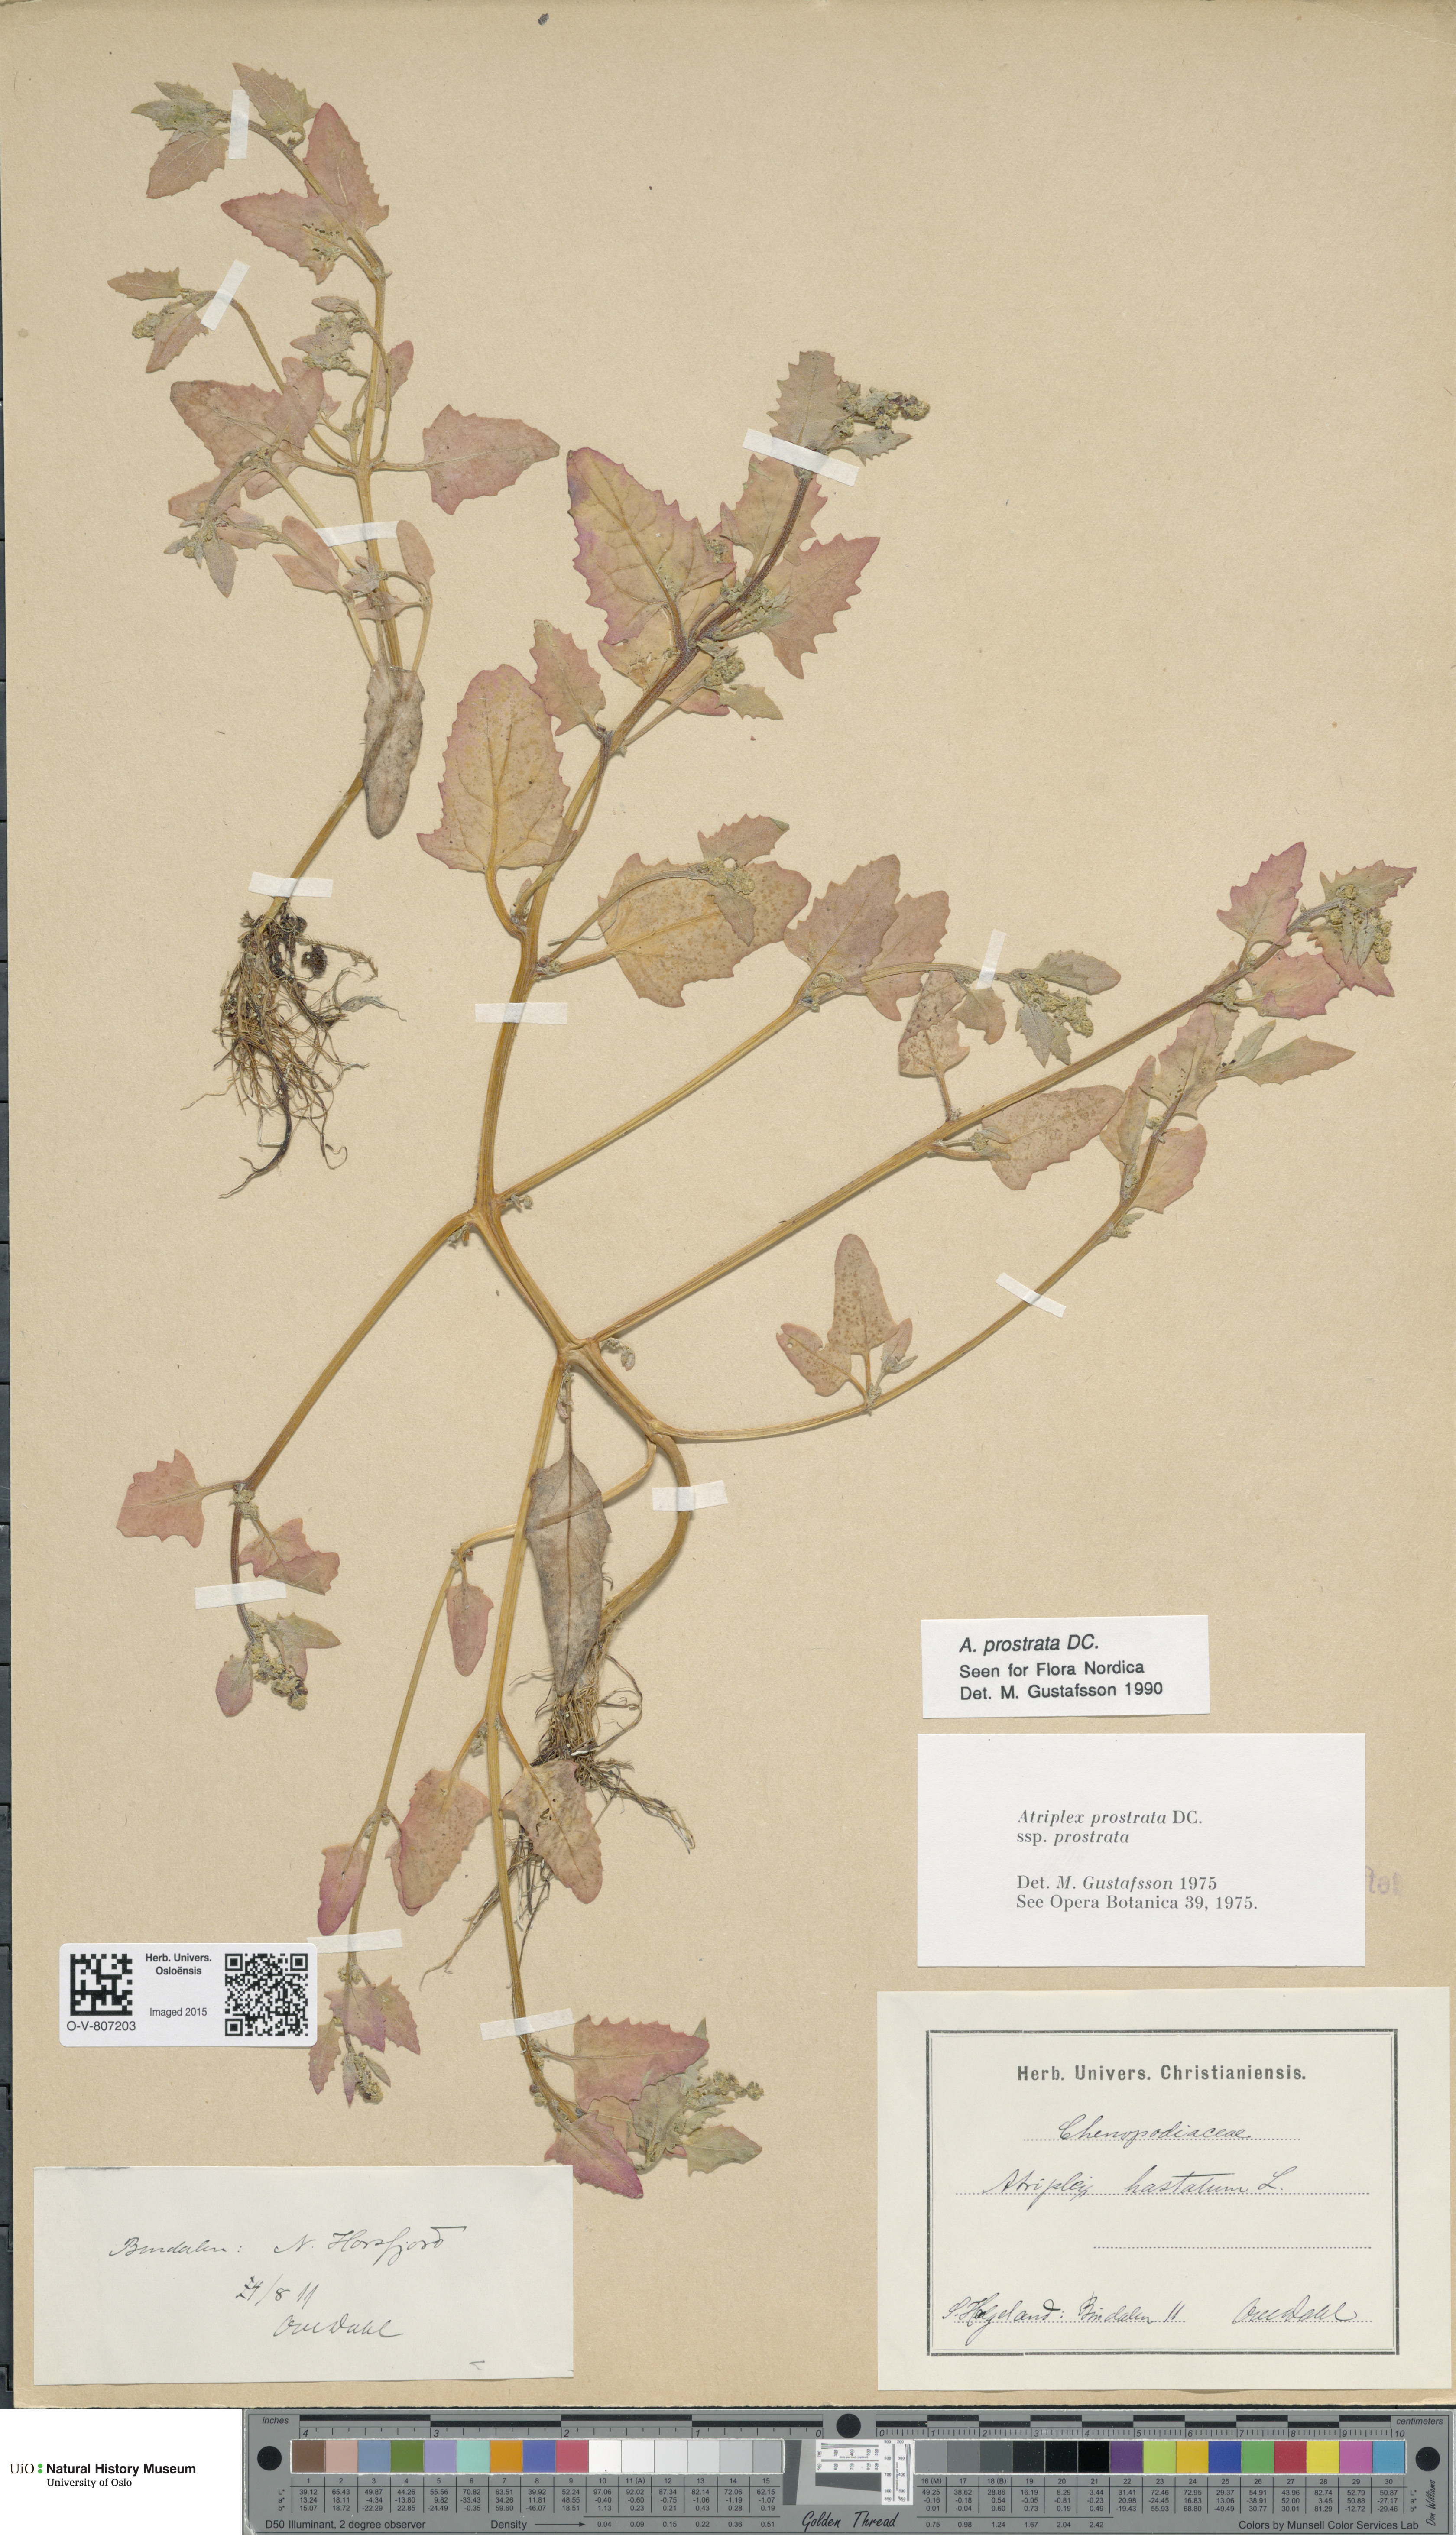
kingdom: Plantae
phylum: Tracheophyta
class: Magnoliopsida
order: Caryophyllales
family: Amaranthaceae
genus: Atriplex
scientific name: Atriplex prostrata
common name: Spear-leaved orache
